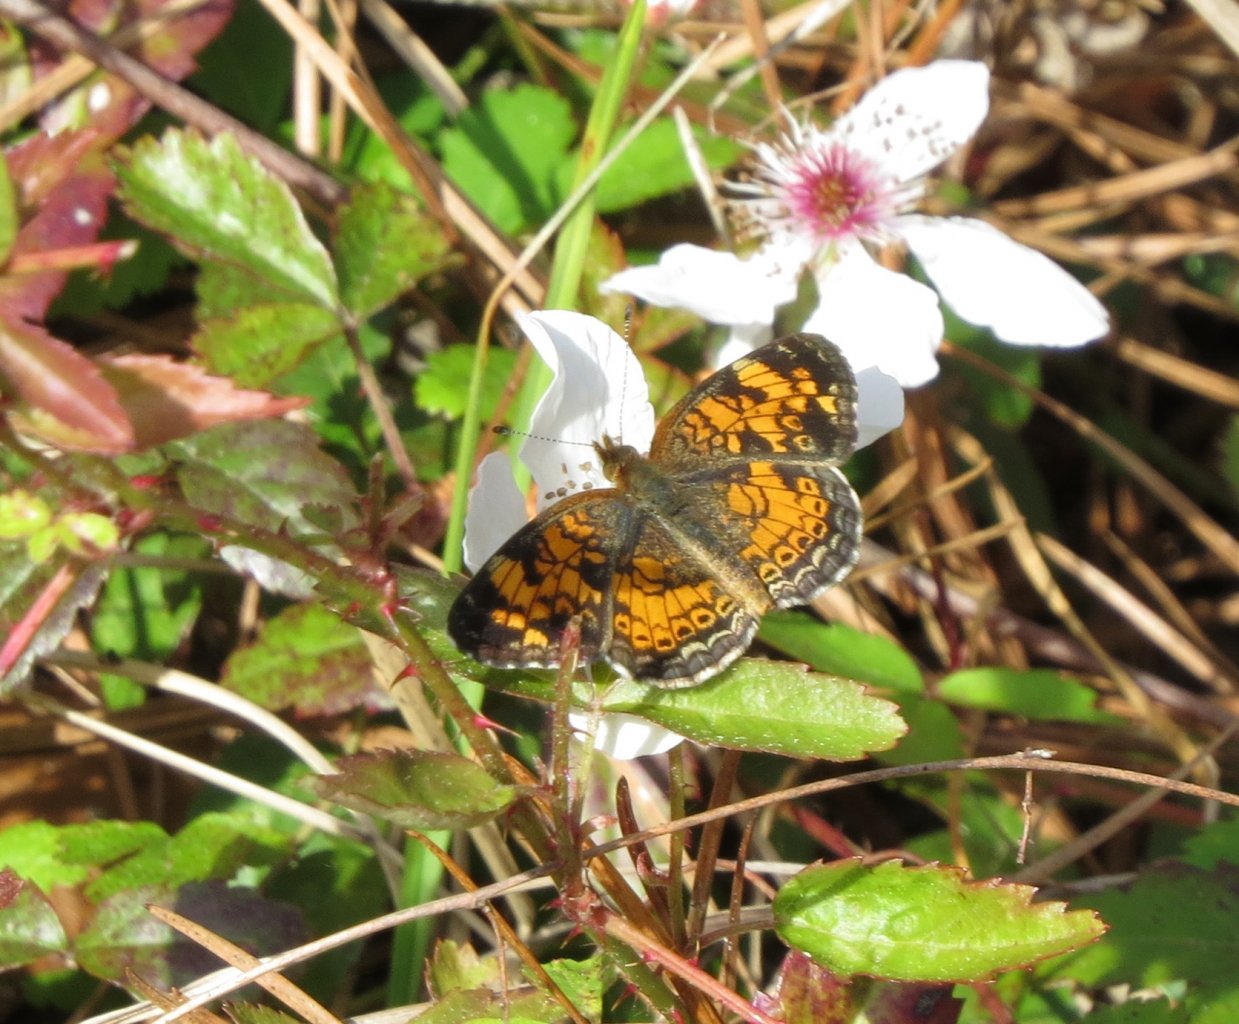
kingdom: Animalia
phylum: Arthropoda
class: Insecta
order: Lepidoptera
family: Nymphalidae
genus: Phyciodes
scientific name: Phyciodes tharos
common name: Pearl Crescent
